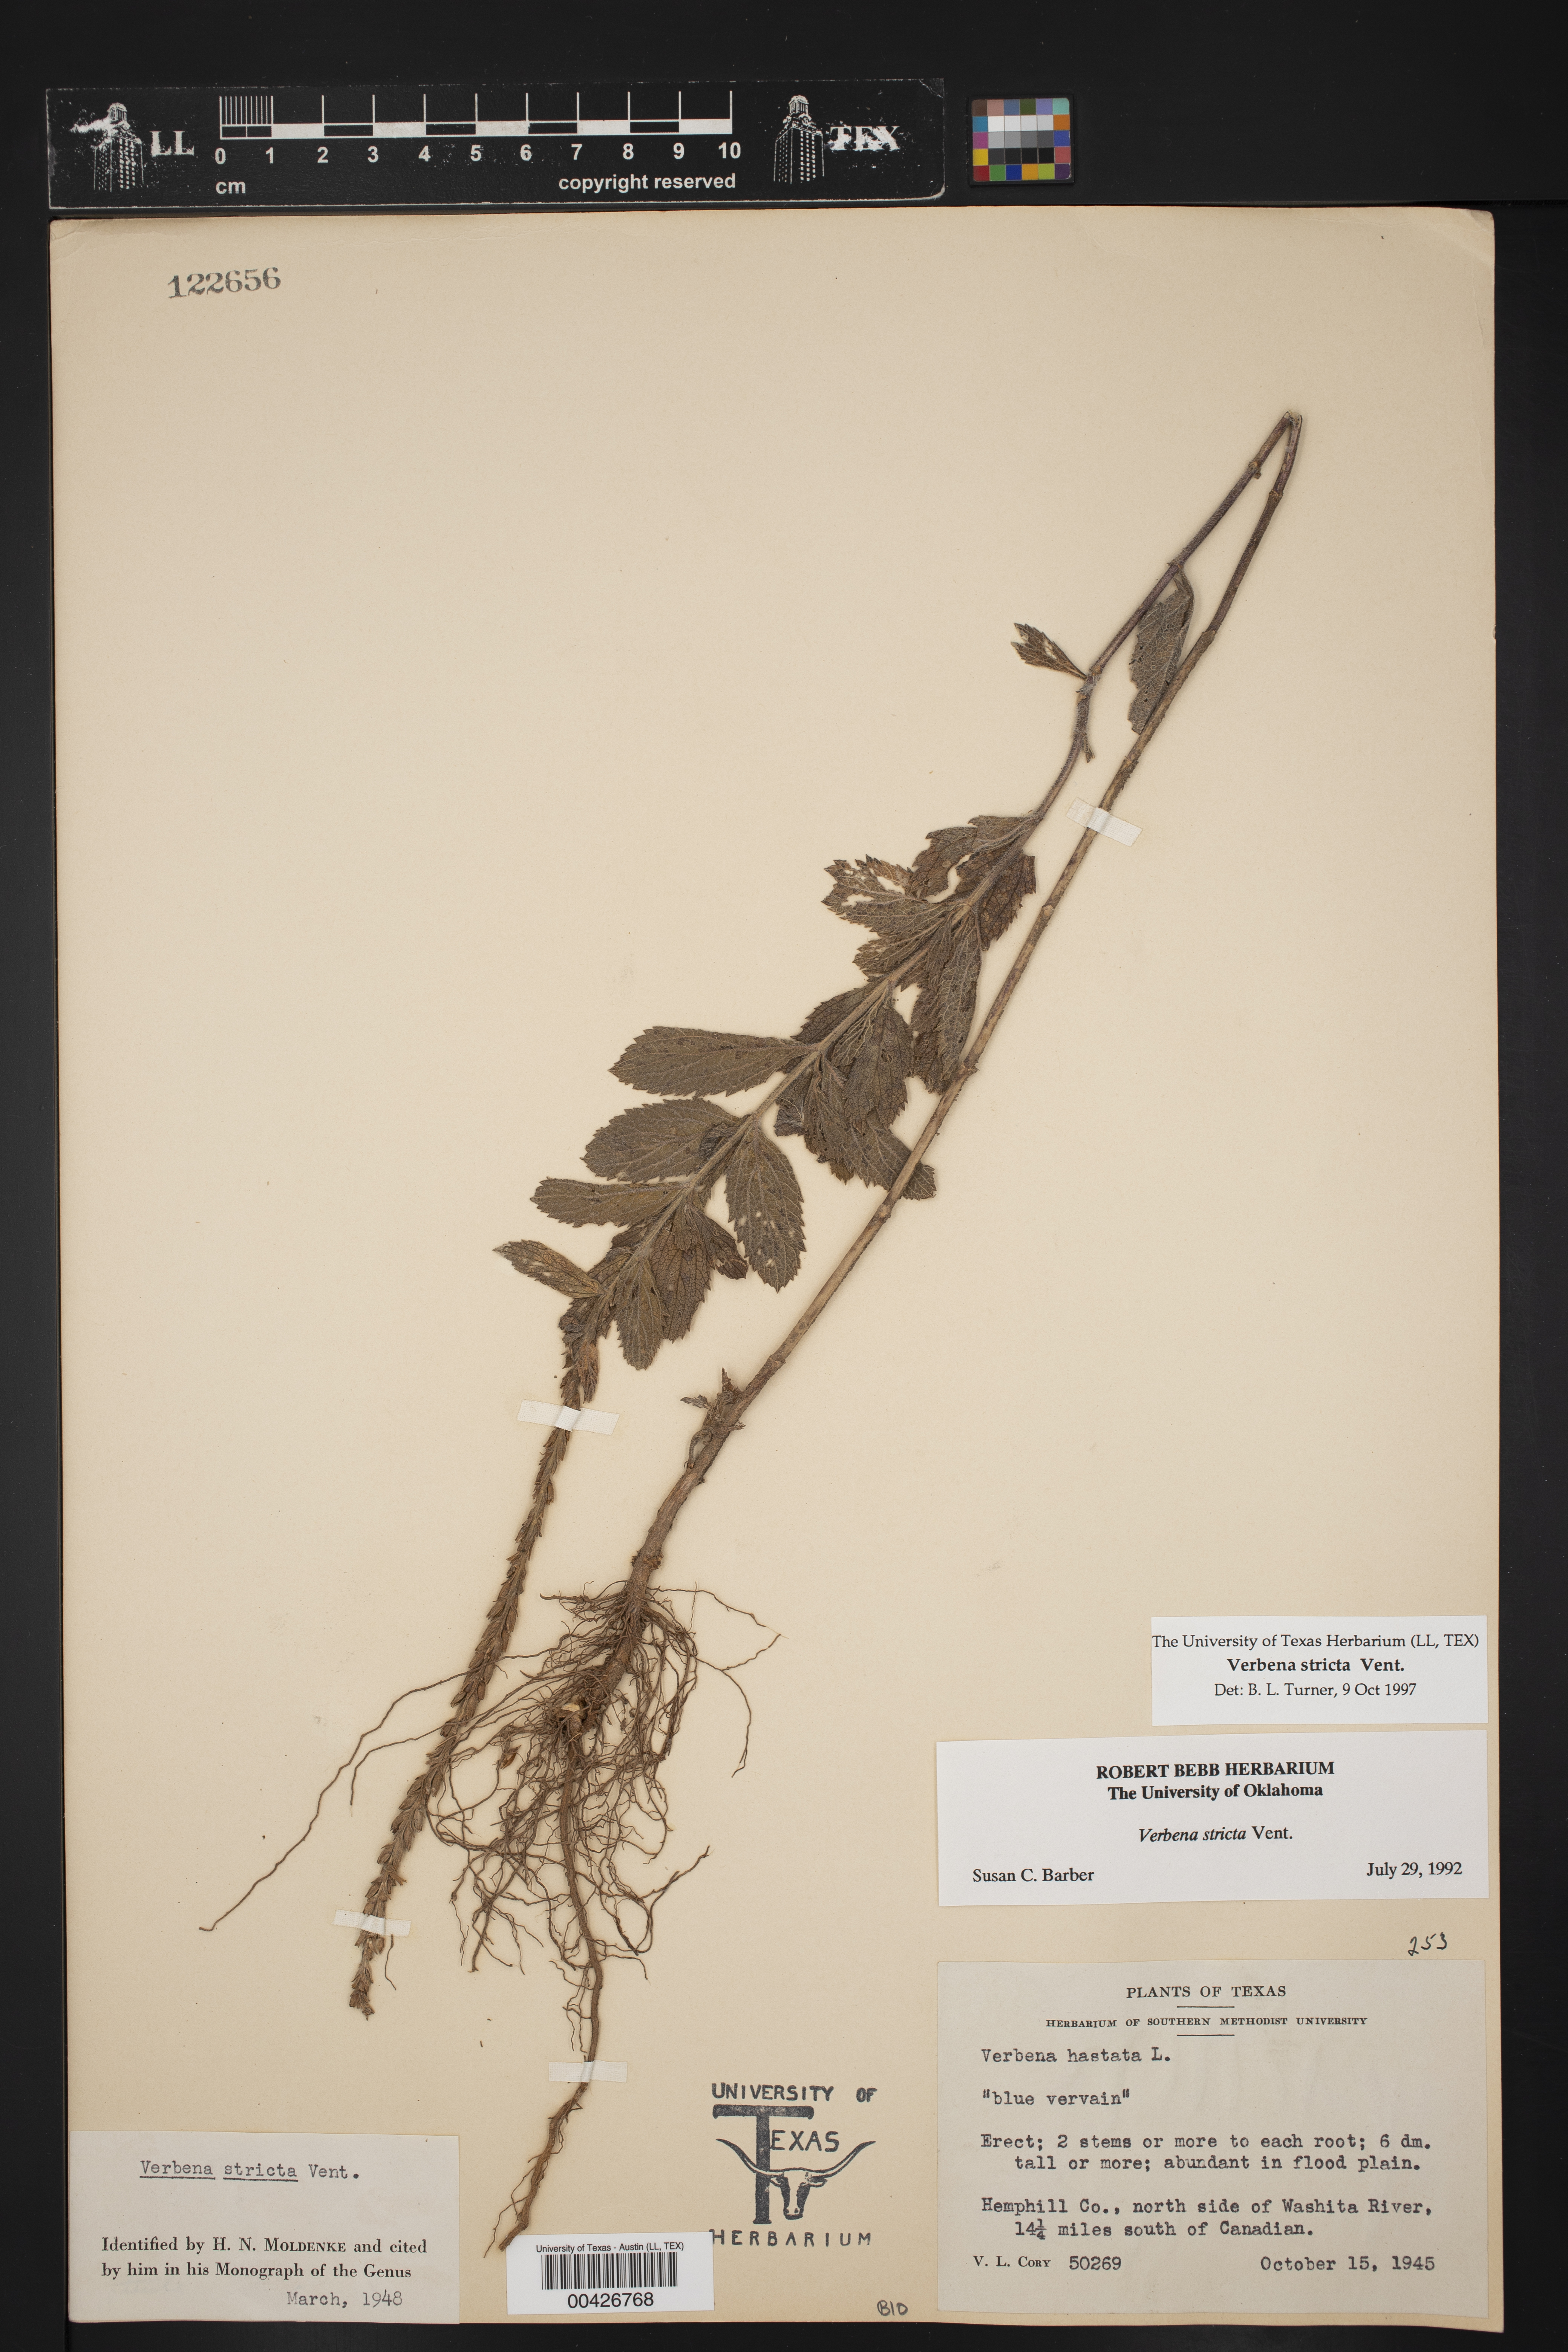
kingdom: Plantae
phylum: Tracheophyta
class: Magnoliopsida
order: Lamiales
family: Verbenaceae
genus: Verbena
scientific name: Verbena stricta
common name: Hoary vervain
